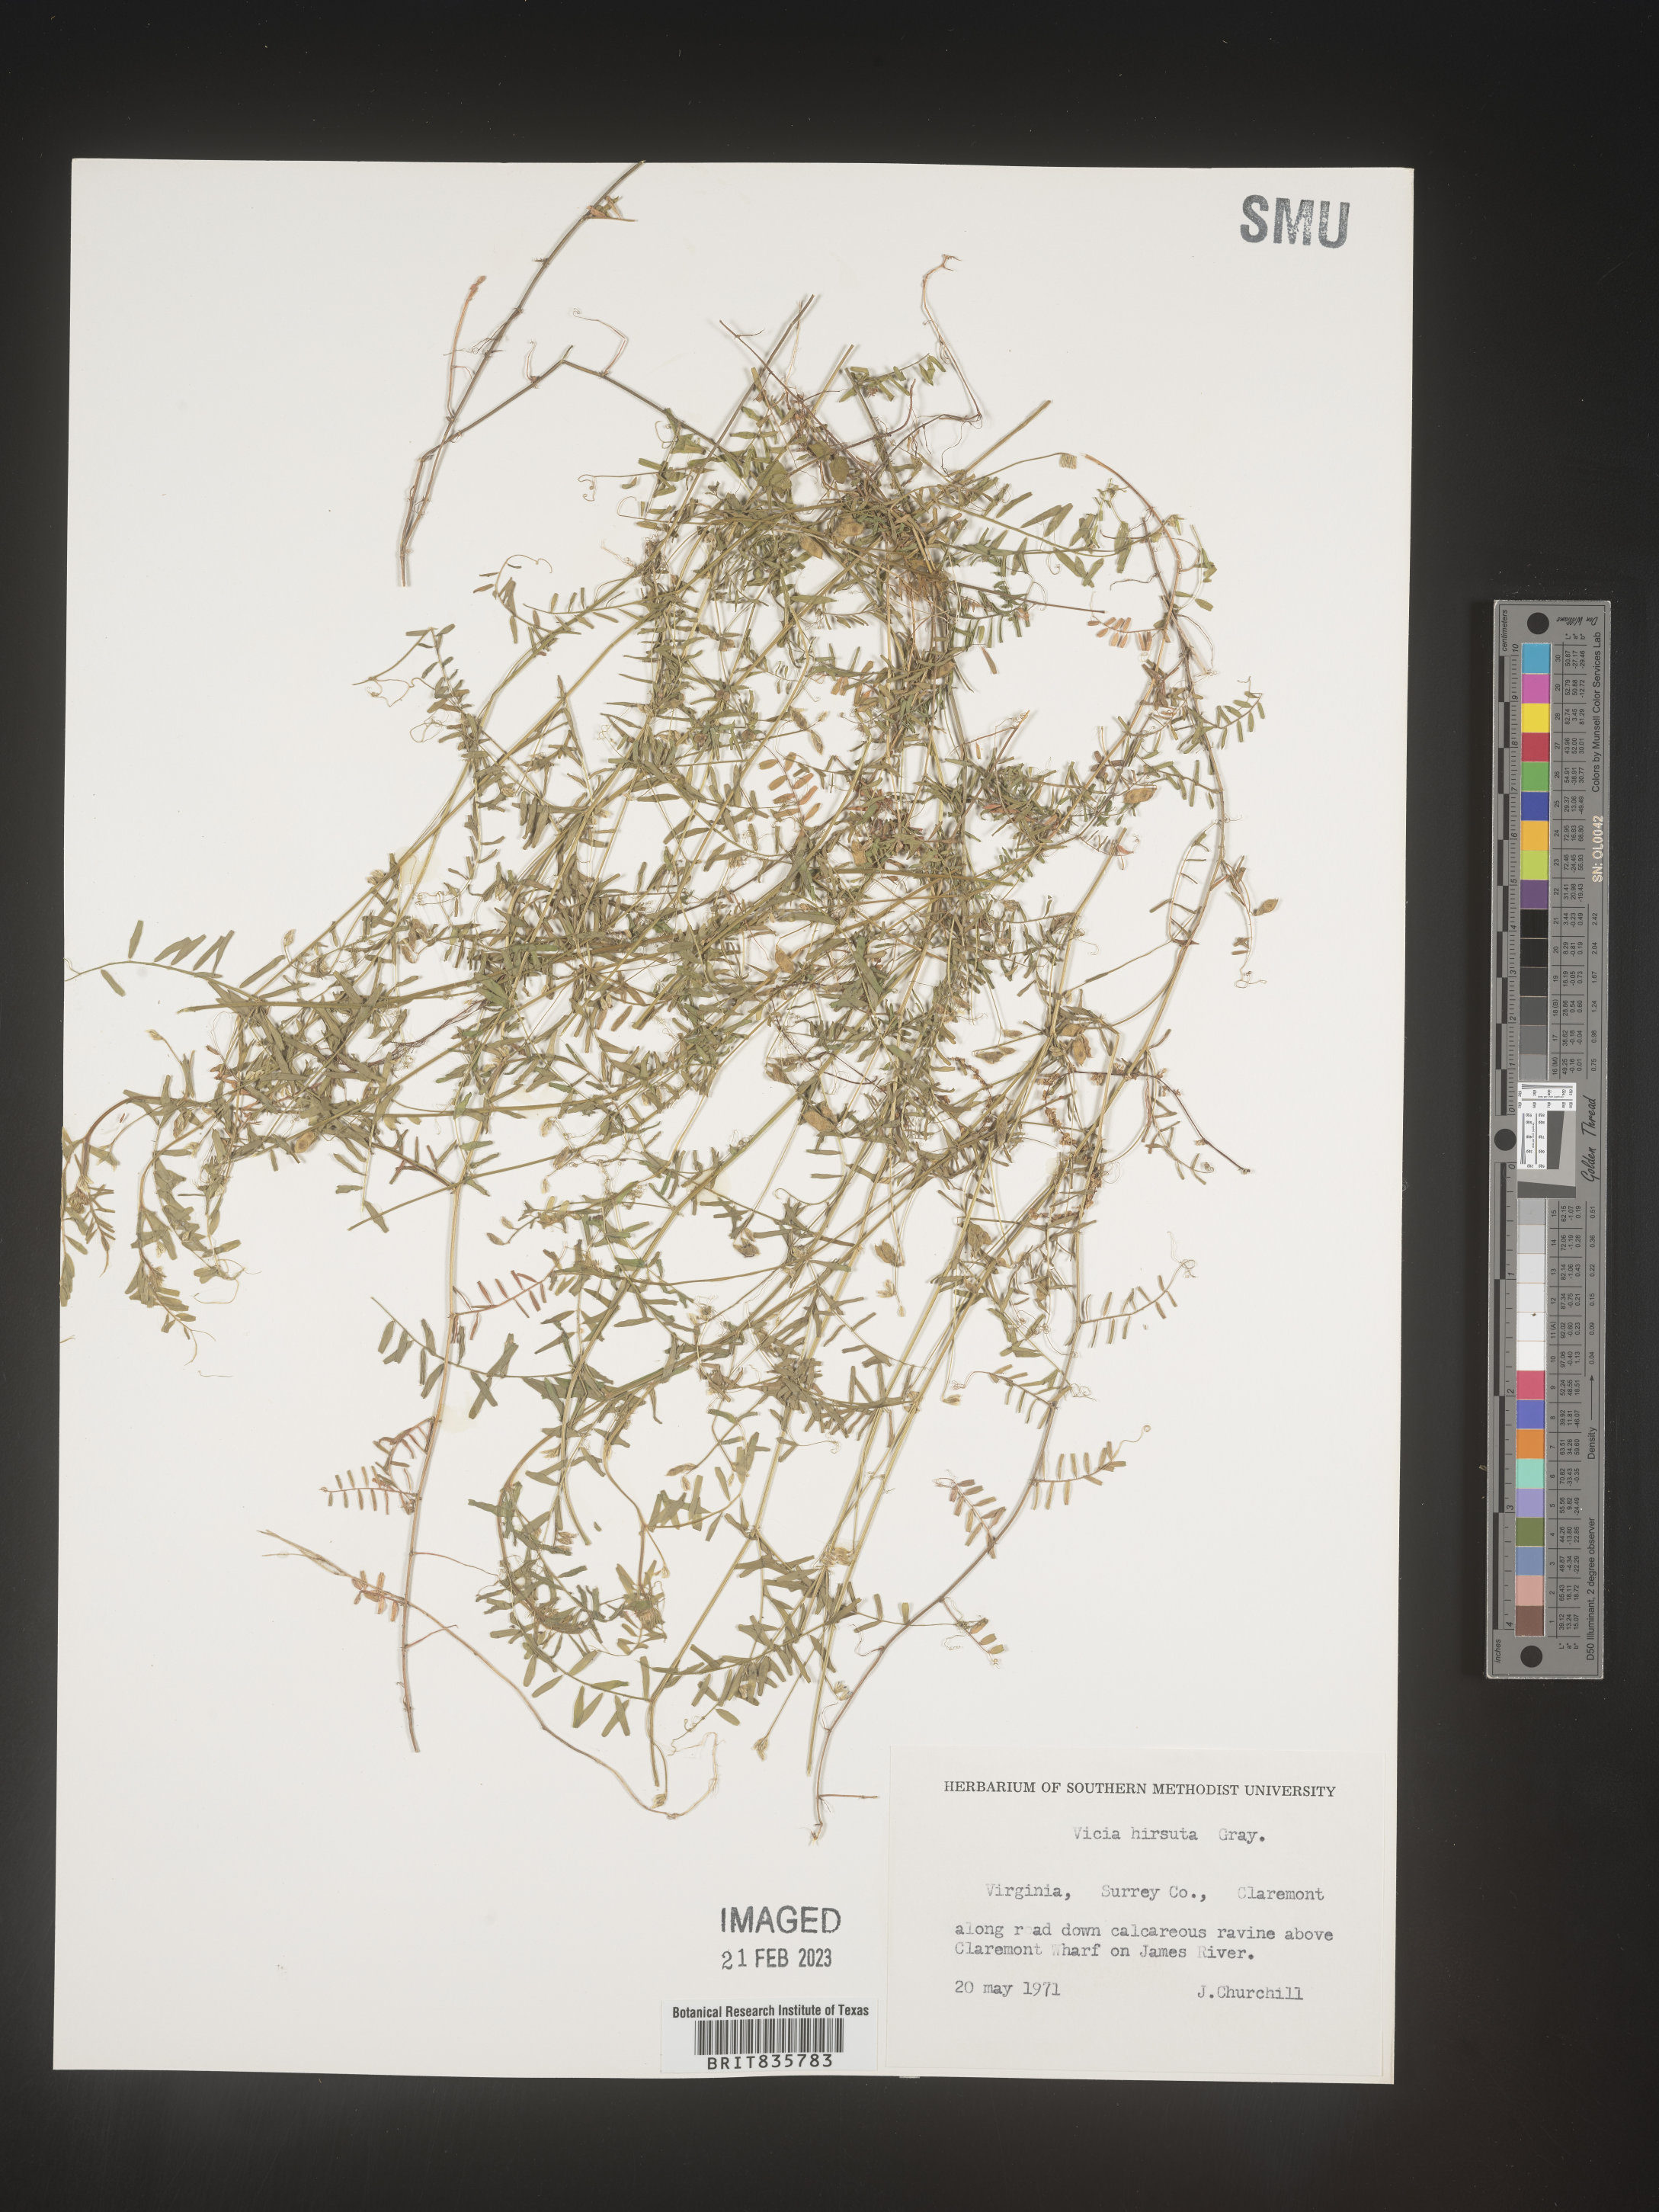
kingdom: Plantae
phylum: Tracheophyta
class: Magnoliopsida
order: Fabales
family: Fabaceae
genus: Vicia
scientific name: Vicia
